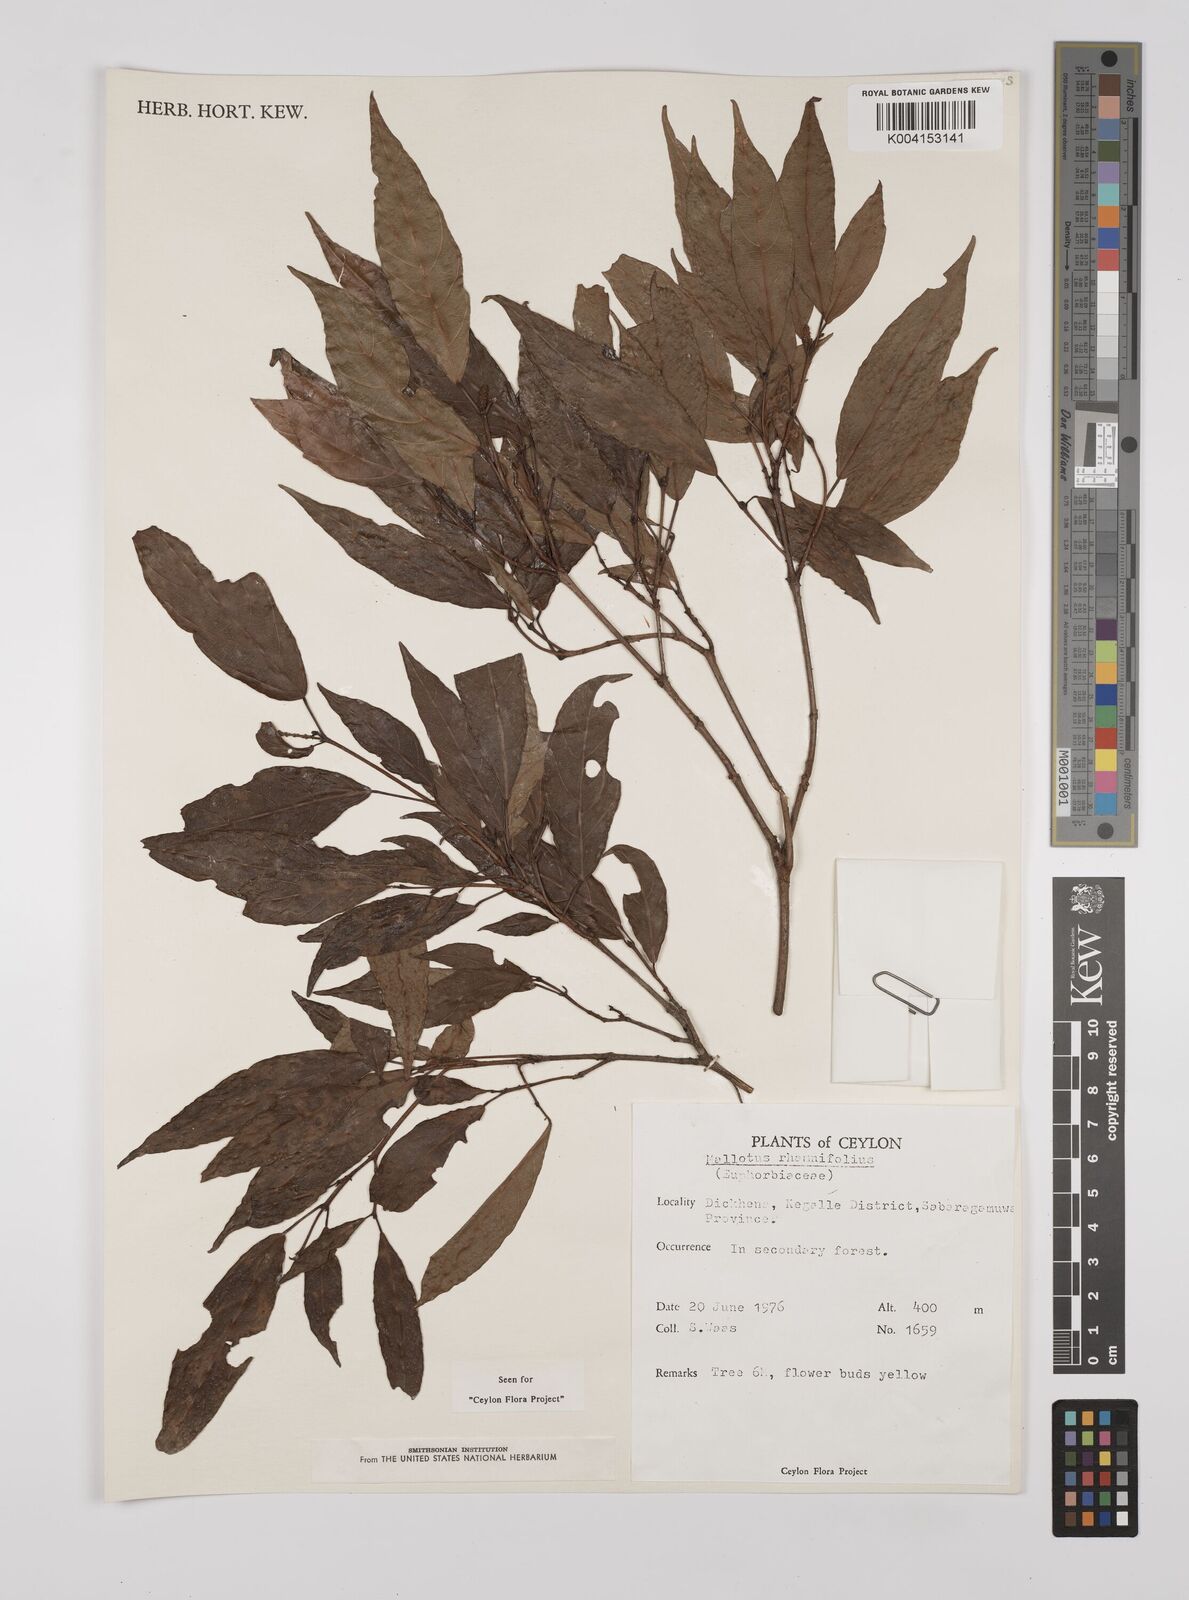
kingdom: Plantae
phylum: Tracheophyta
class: Magnoliopsida
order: Malpighiales
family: Euphorbiaceae
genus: Mallotus
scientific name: Mallotus rhamnifolius
